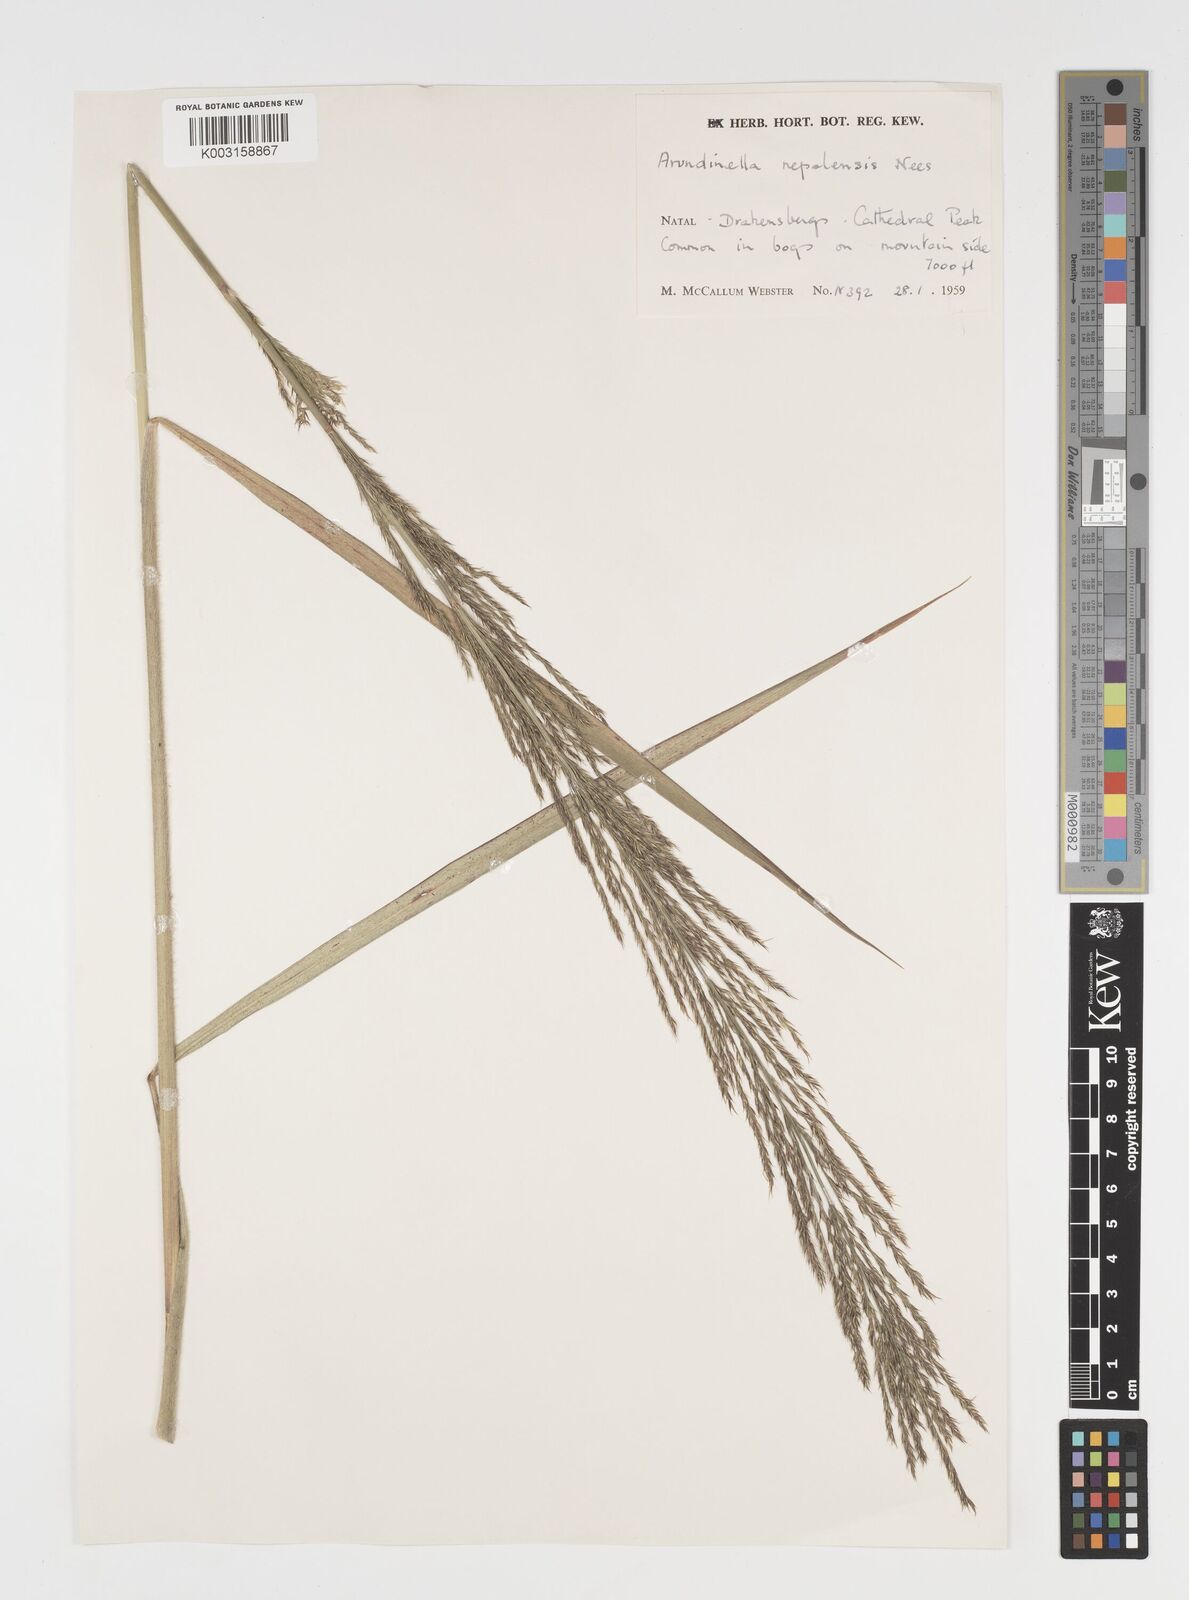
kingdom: Plantae
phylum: Tracheophyta
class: Liliopsida
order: Poales
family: Poaceae
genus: Arundinella
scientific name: Arundinella nepalensis
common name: Reed grass
